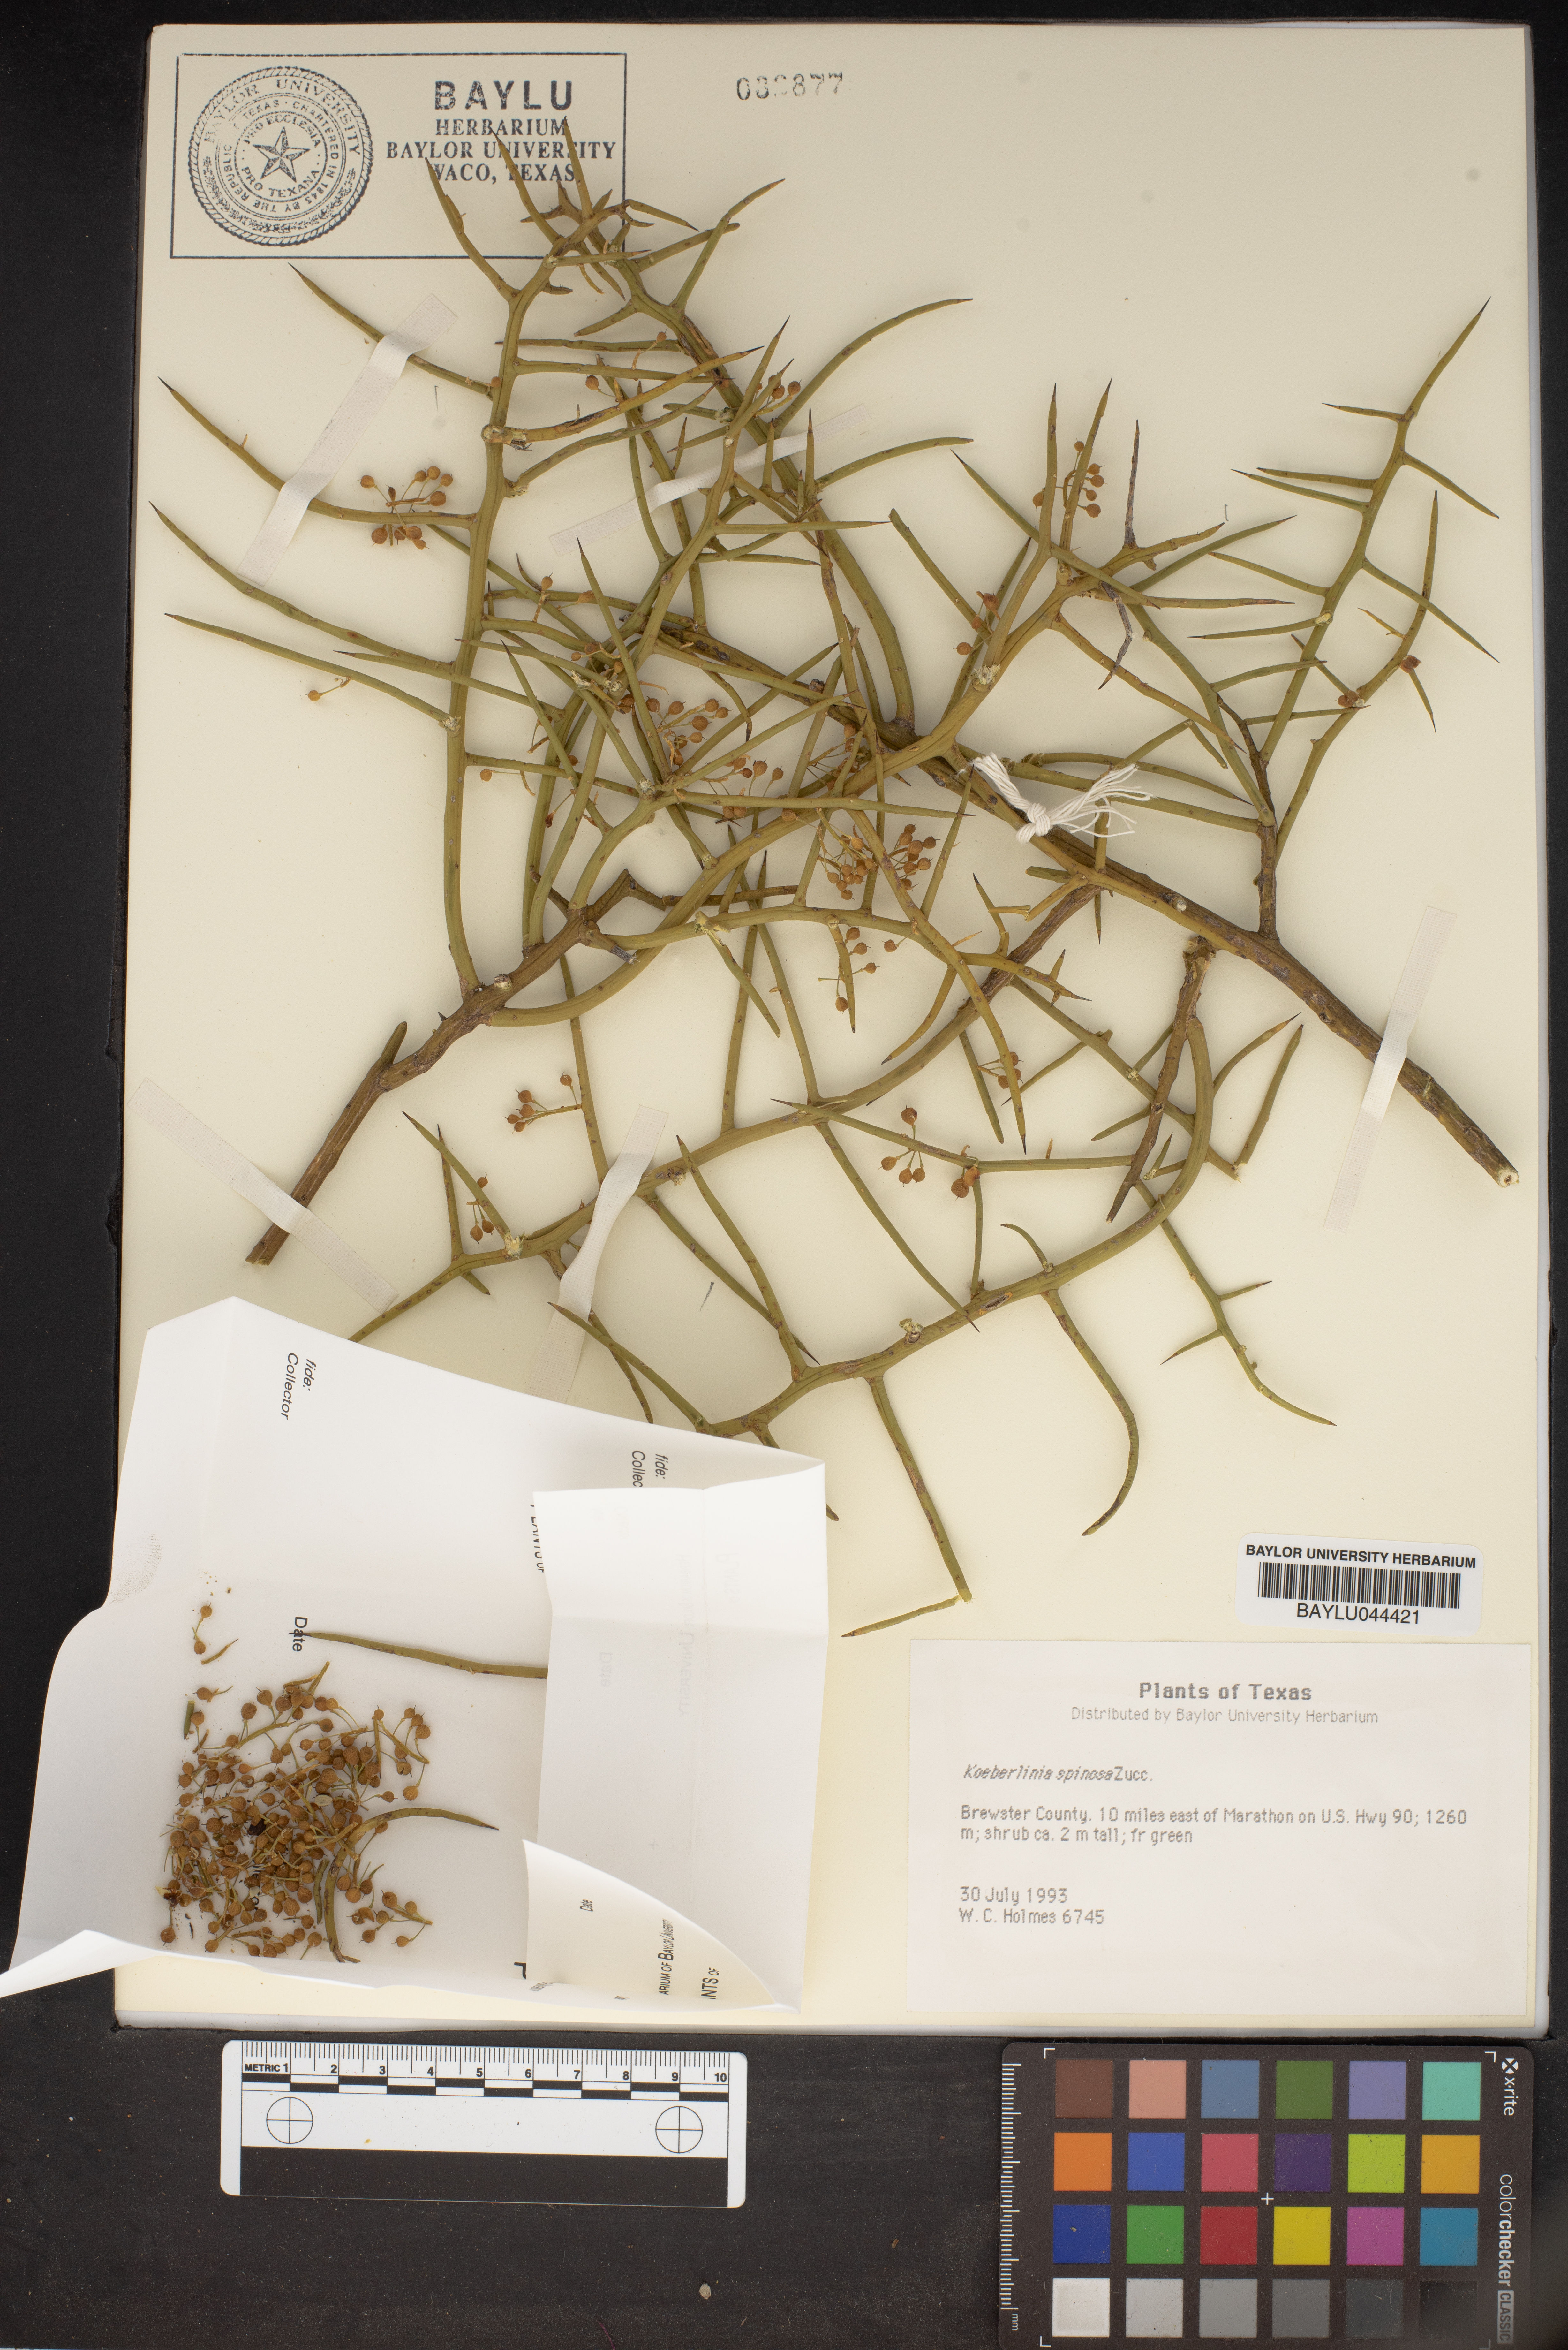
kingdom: Plantae
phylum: Tracheophyta
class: Magnoliopsida
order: Brassicales
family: Koeberliniaceae
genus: Koeberlinia
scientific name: Koeberlinia spinosa
